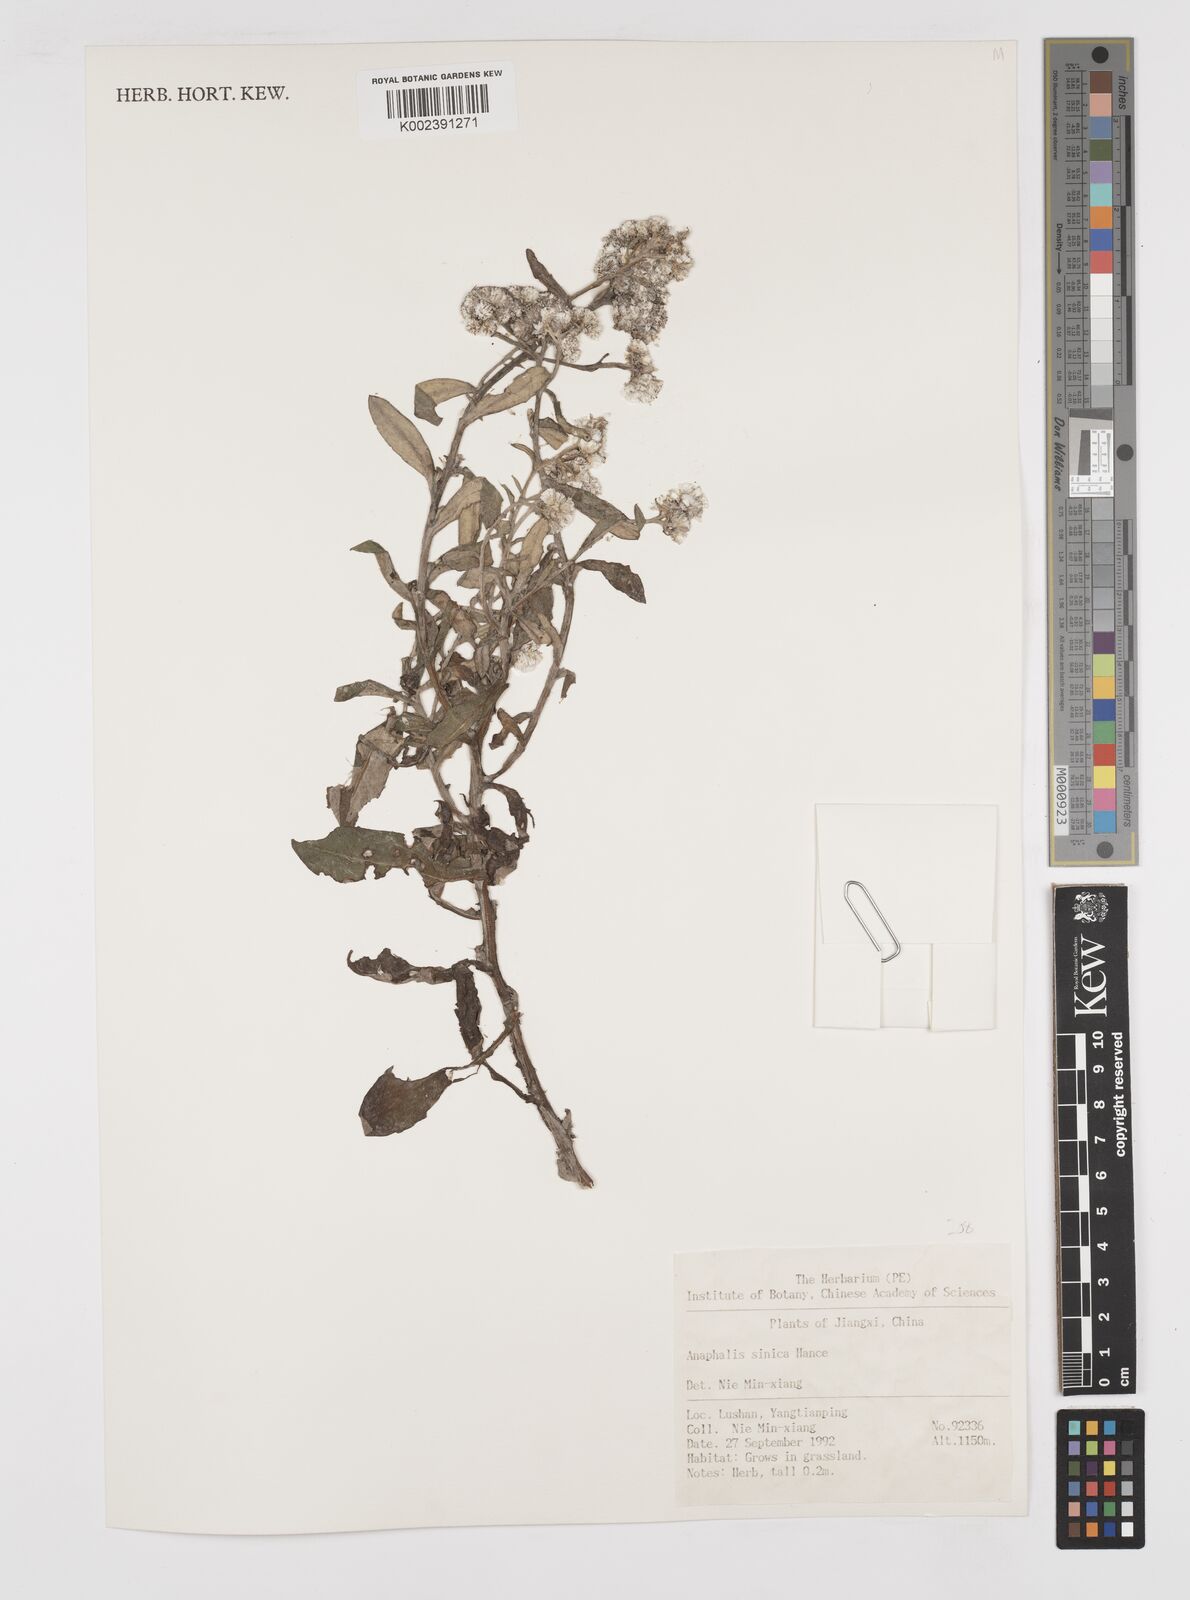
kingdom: Plantae
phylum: Tracheophyta
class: Magnoliopsida
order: Asterales
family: Asteraceae
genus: Anaphalis
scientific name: Anaphalis sinica
